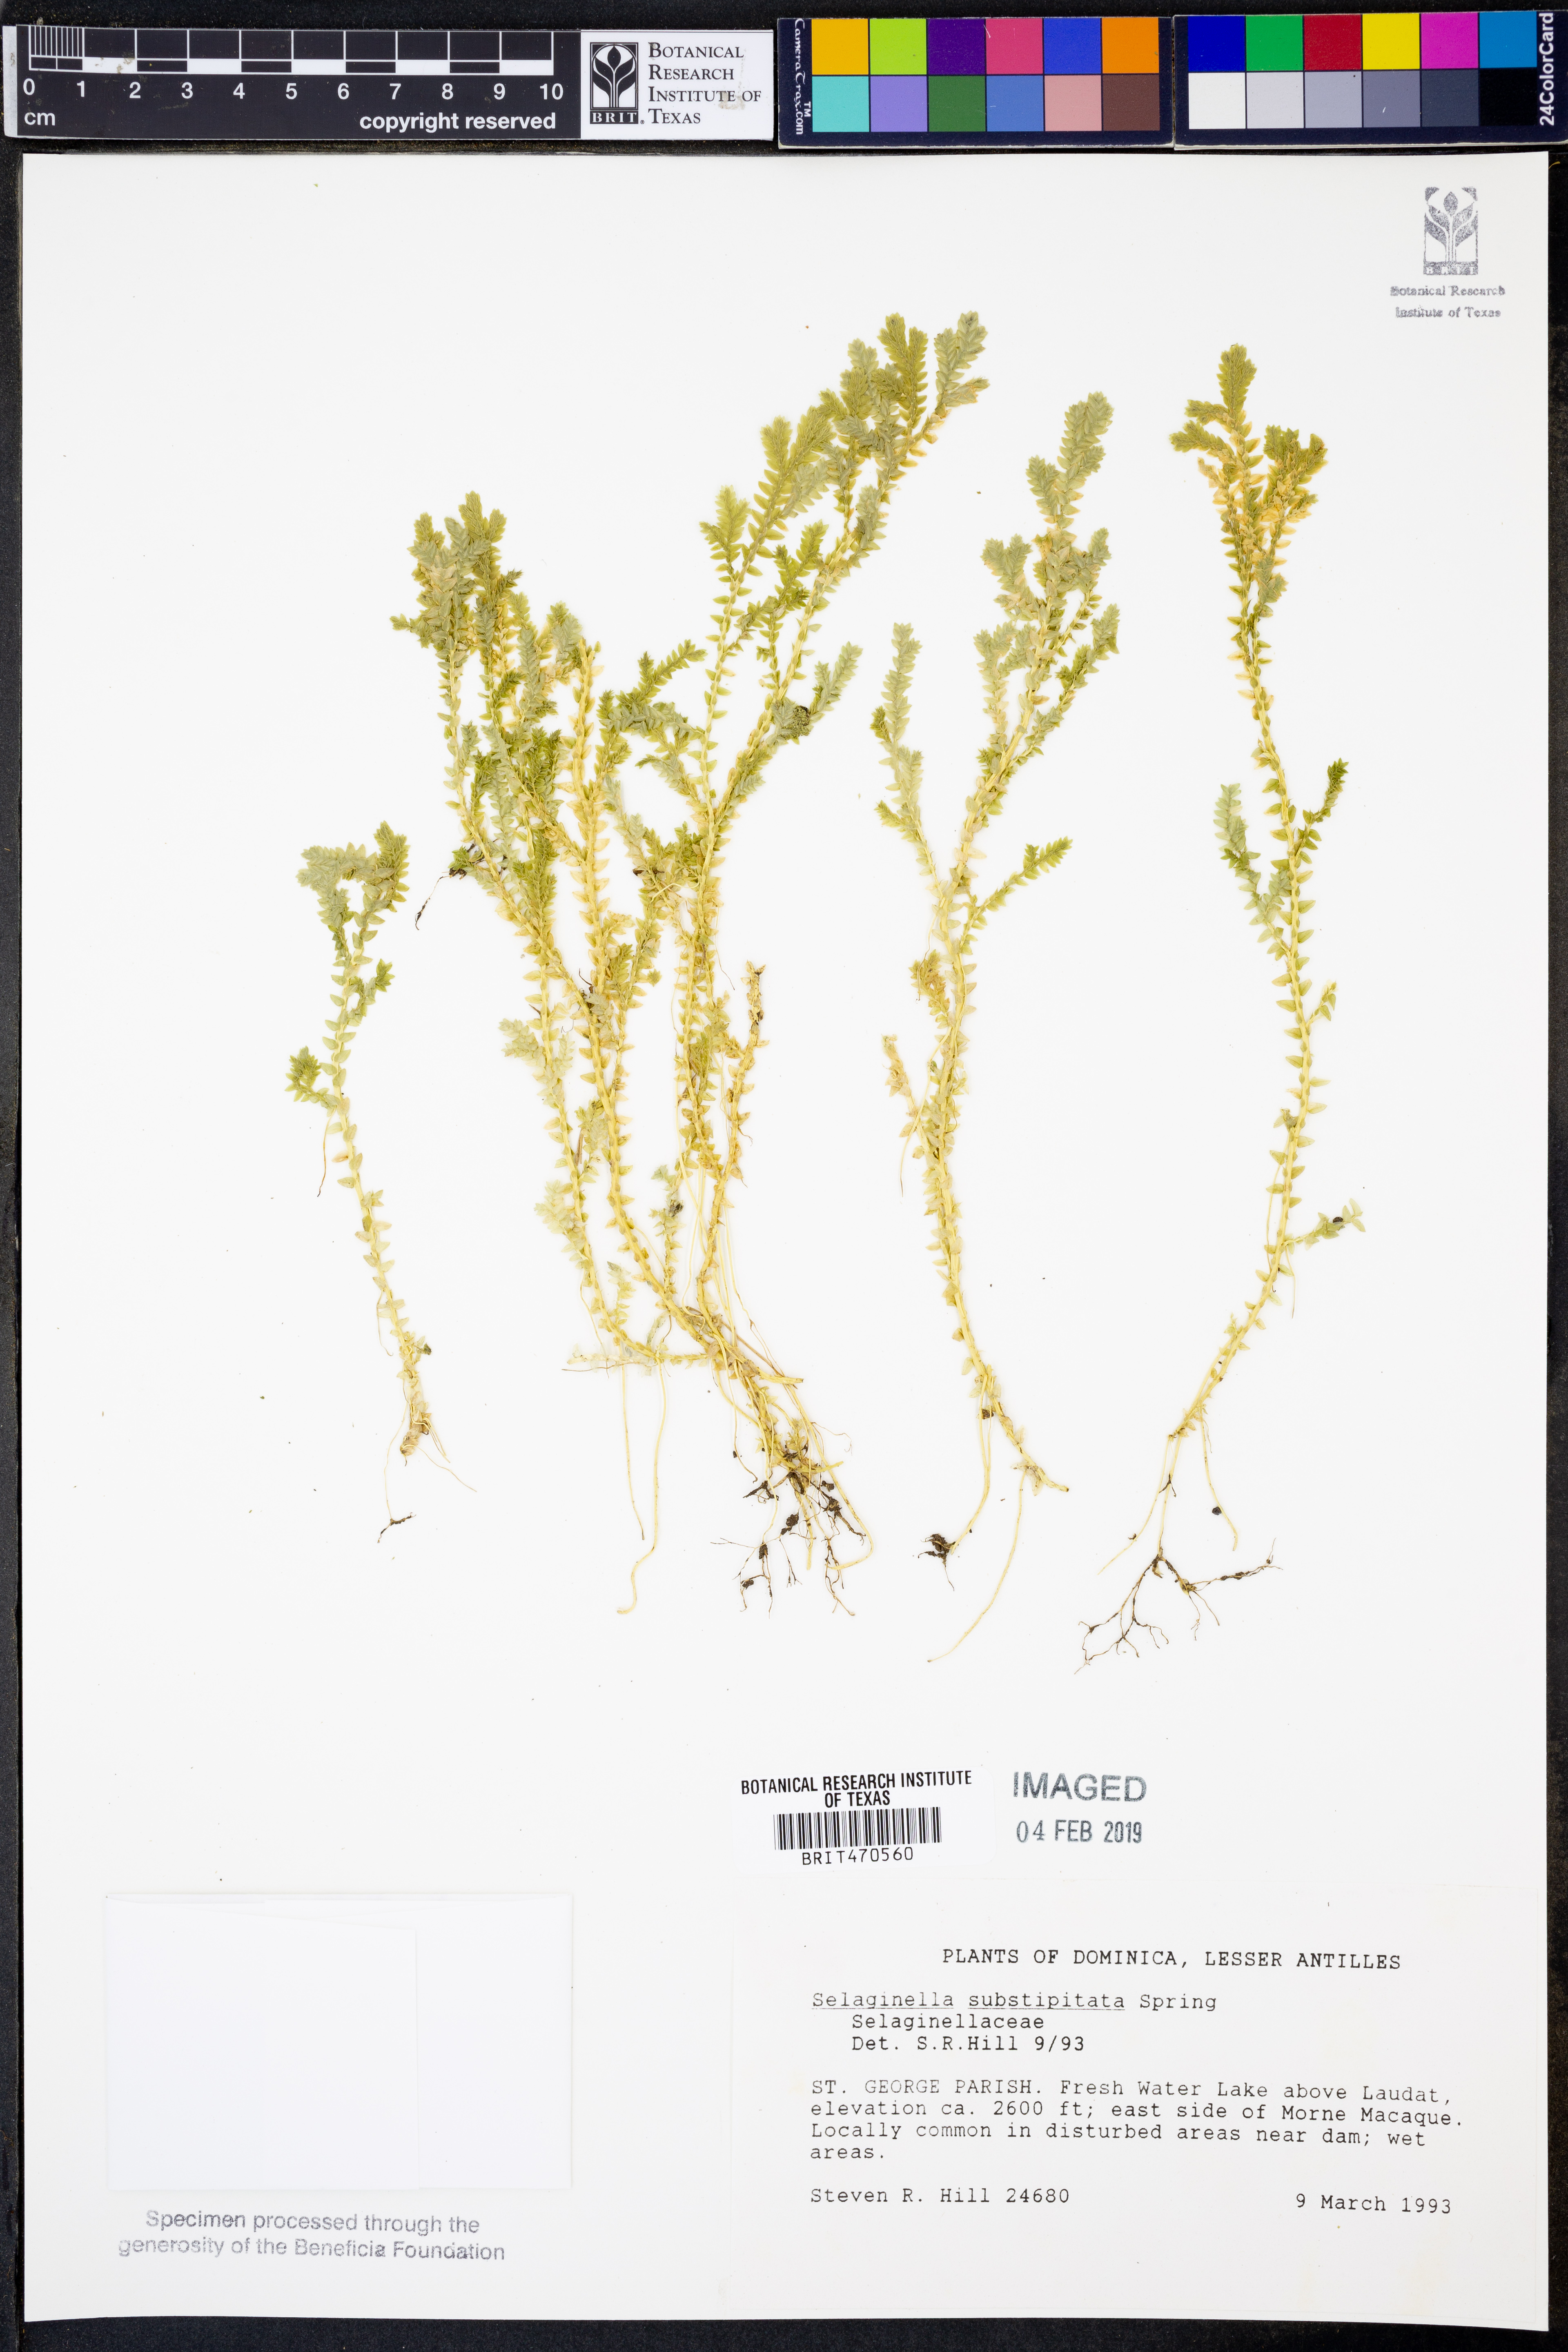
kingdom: Plantae
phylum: Tracheophyta
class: Lycopodiopsida
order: Selaginellales
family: Selaginellaceae
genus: Selaginella
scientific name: Selaginella substipitata
